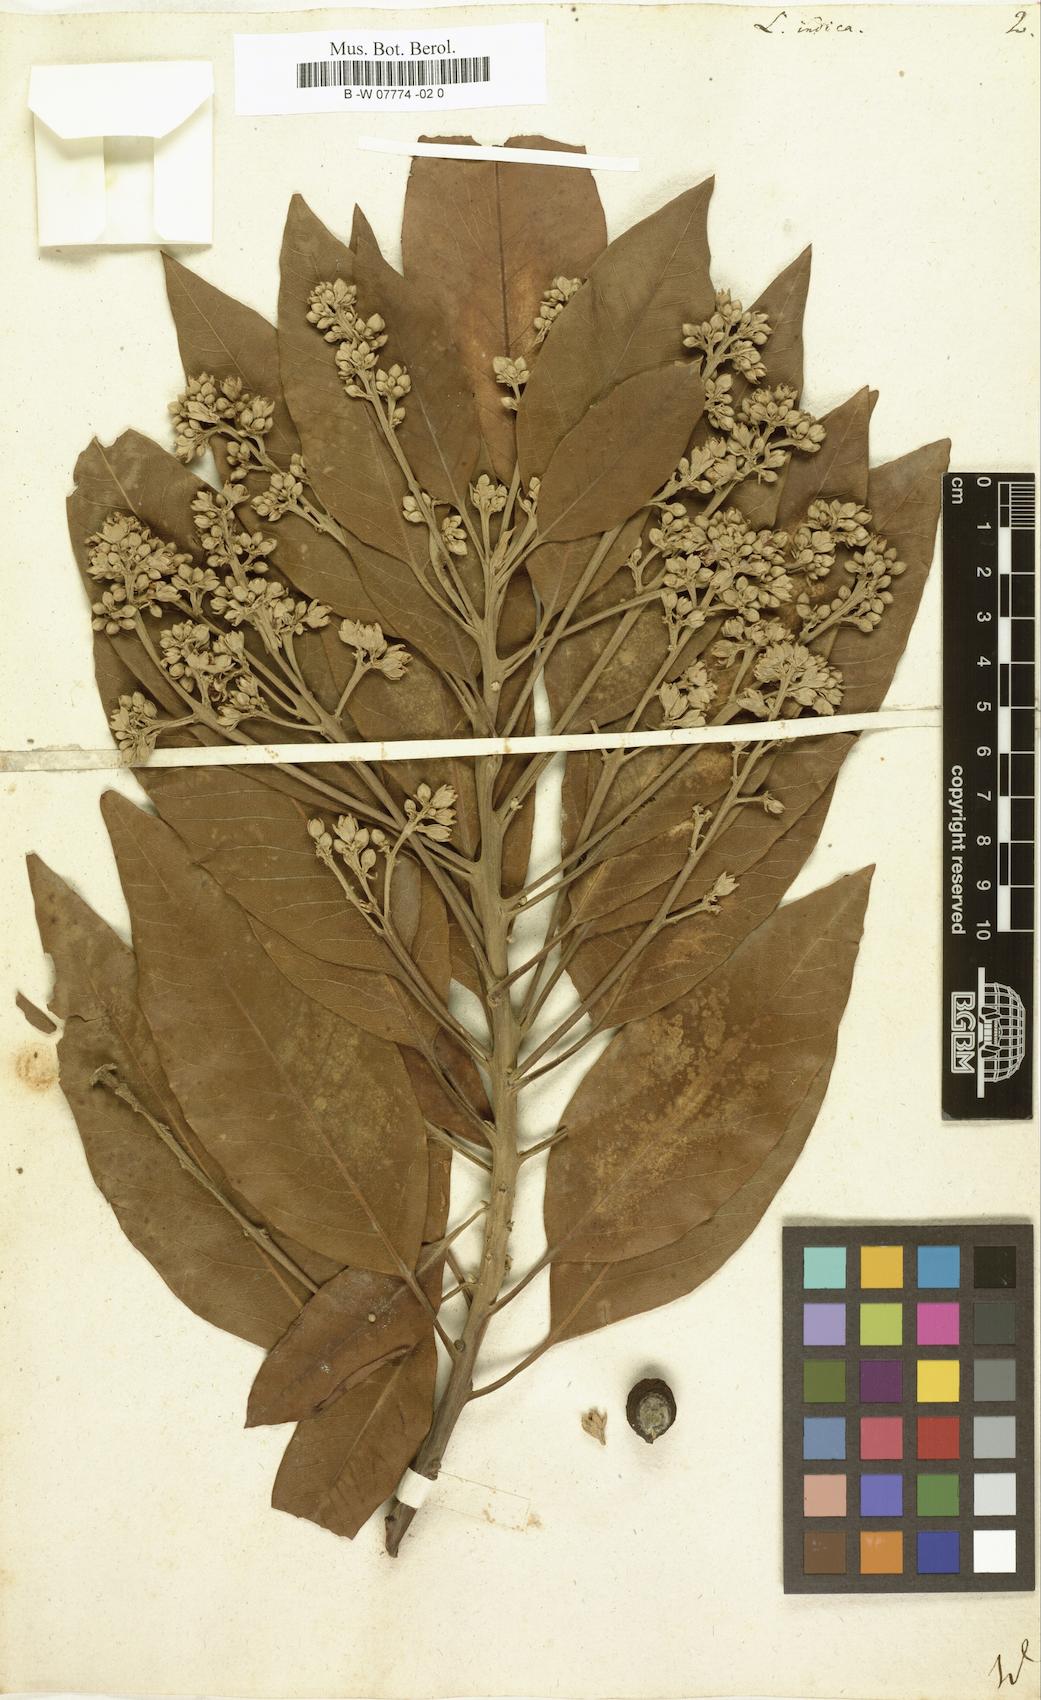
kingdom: Plantae
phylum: Tracheophyta
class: Magnoliopsida
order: Laurales
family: Lauraceae
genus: Persea
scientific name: Persea indica
